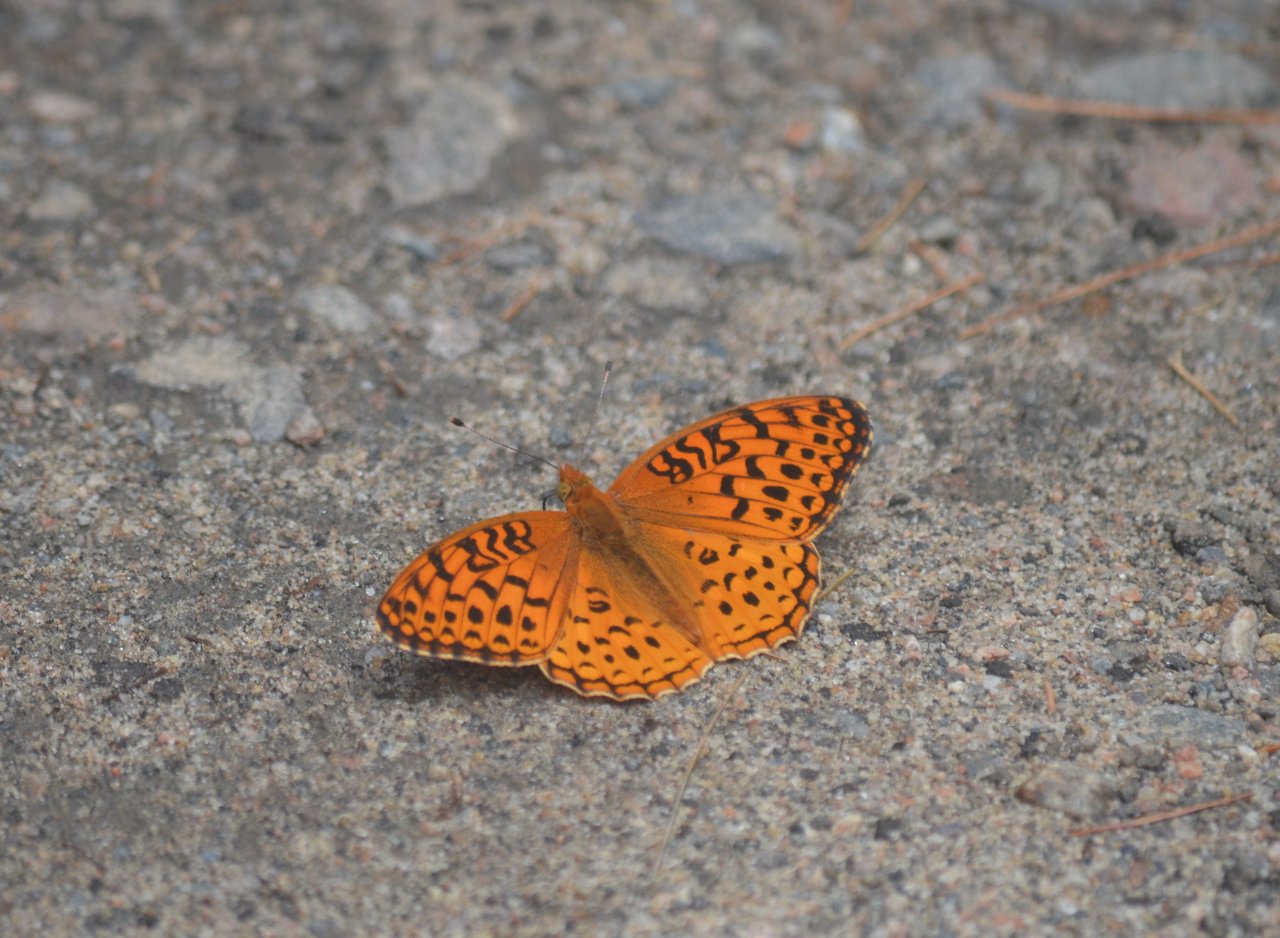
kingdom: Animalia
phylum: Arthropoda
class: Insecta
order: Lepidoptera
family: Nymphalidae
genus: Speyeria
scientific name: Speyeria aphrodite
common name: Aphrodite Fritillary
